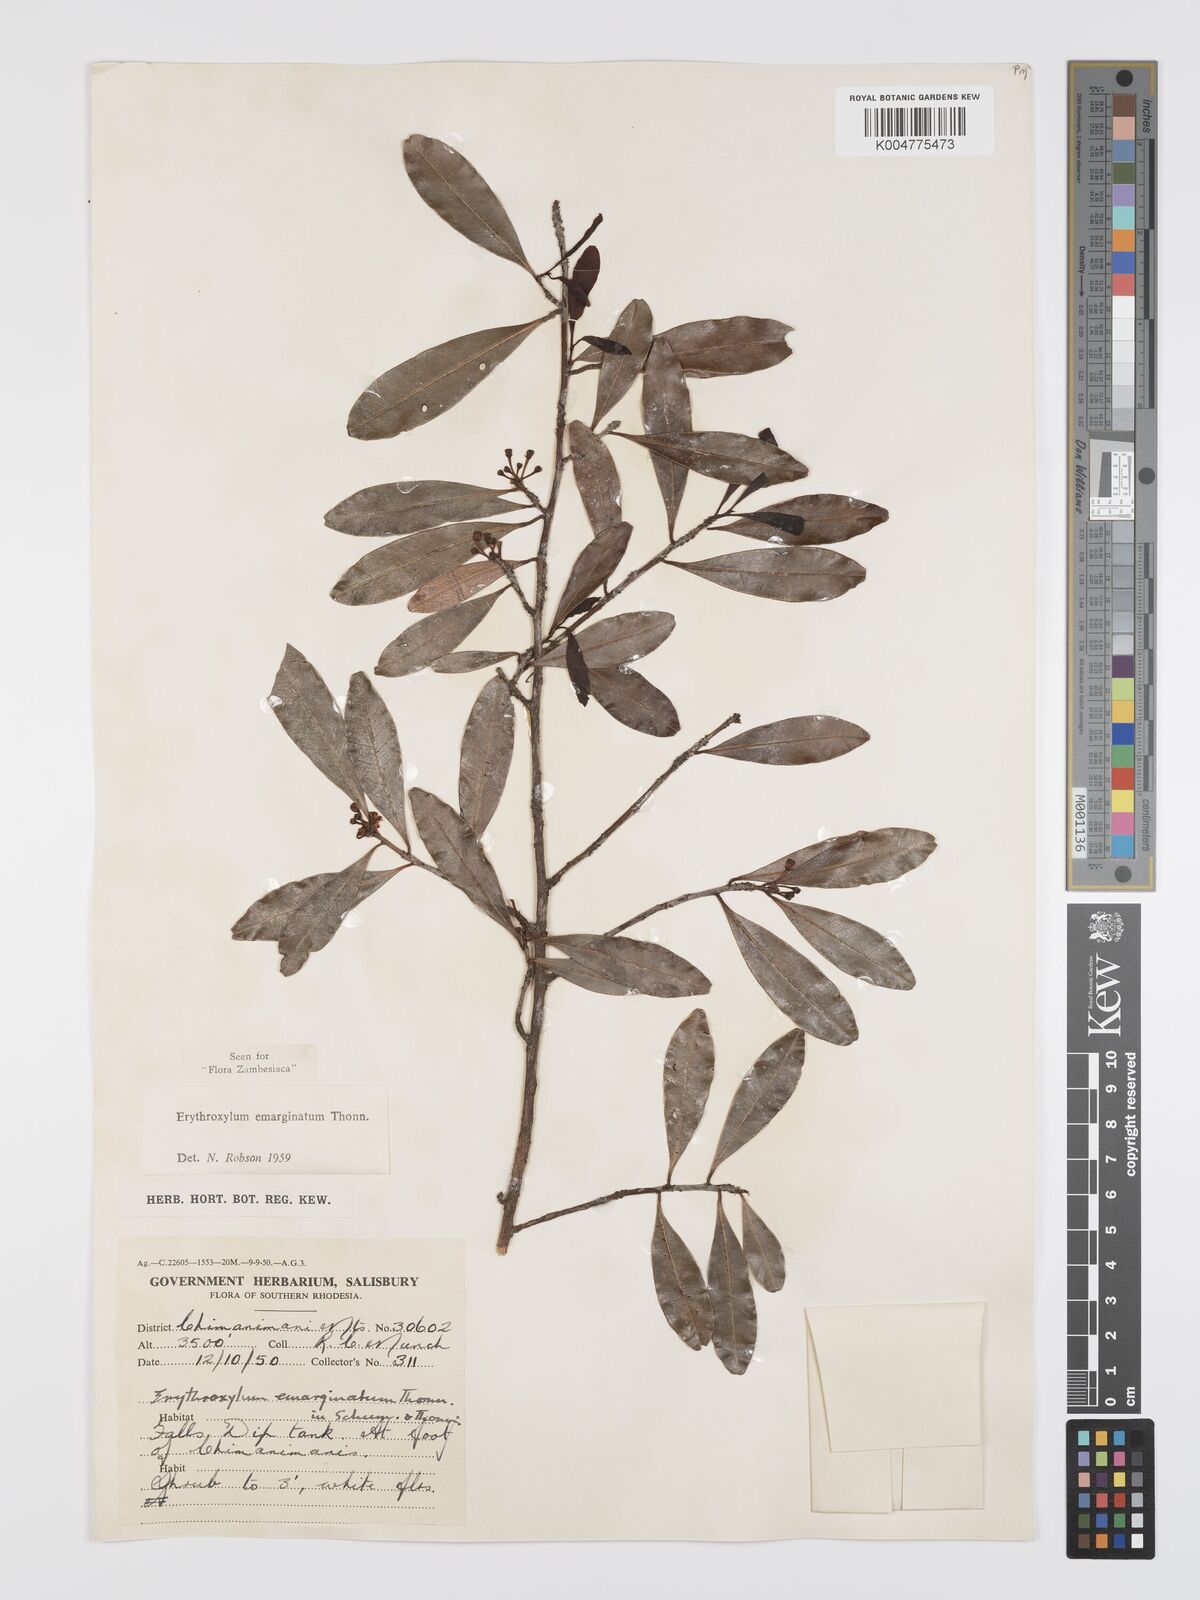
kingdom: Plantae
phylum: Tracheophyta
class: Magnoliopsida
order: Malpighiales
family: Erythroxylaceae
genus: Erythroxylum
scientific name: Erythroxylum emarginatum
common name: African coca-tree
